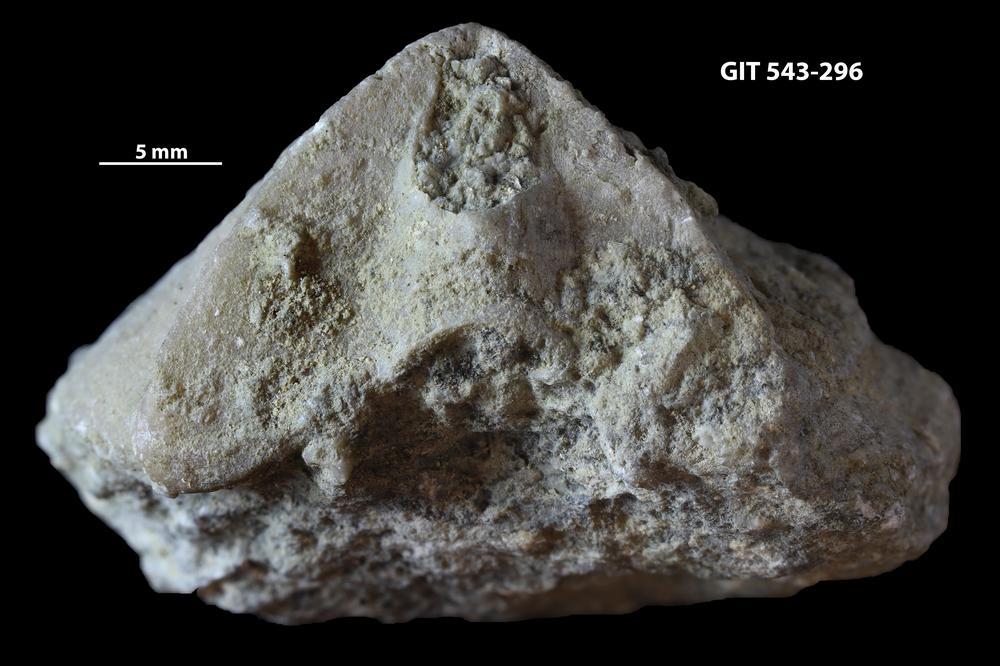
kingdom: Animalia
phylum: Brachiopoda
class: Rhynchonellata
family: Clitambonitidae
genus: Ilmarinia
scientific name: Ilmarinia dimorpha
